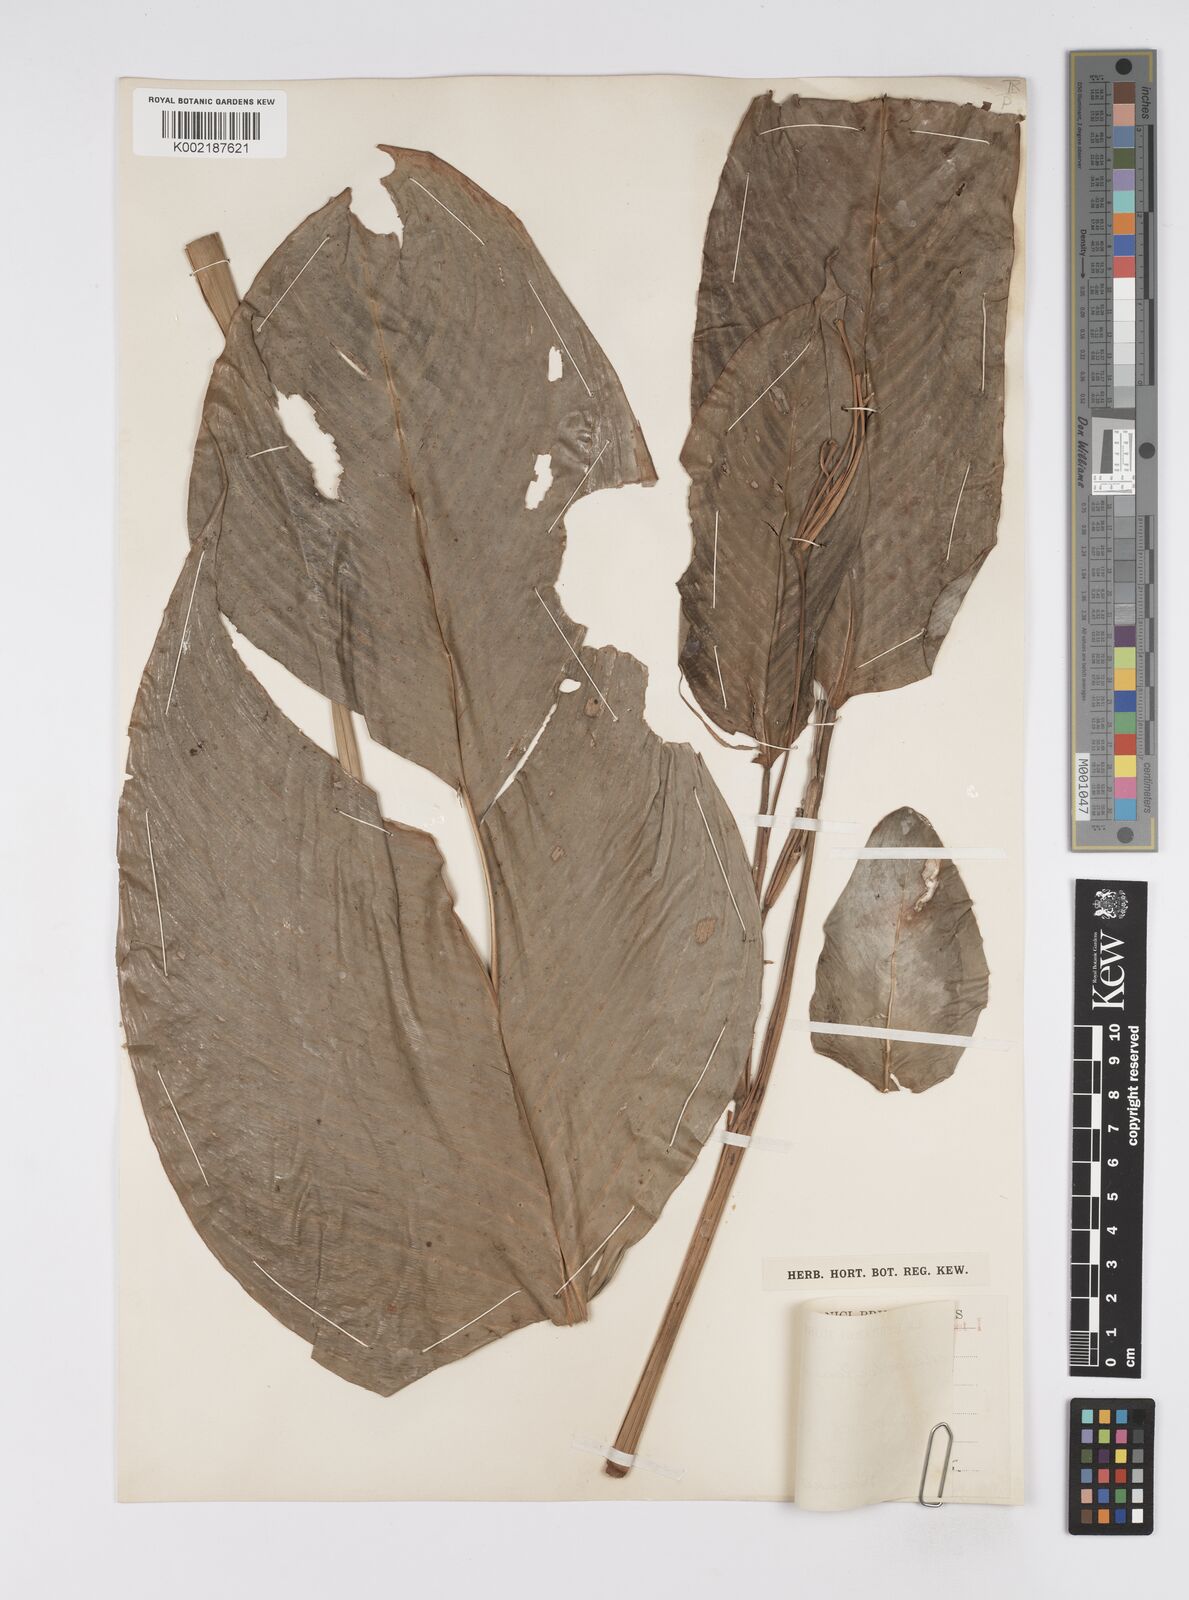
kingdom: Plantae
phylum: Tracheophyta
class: Liliopsida
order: Zingiberales
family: Marantaceae
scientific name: Marantaceae
